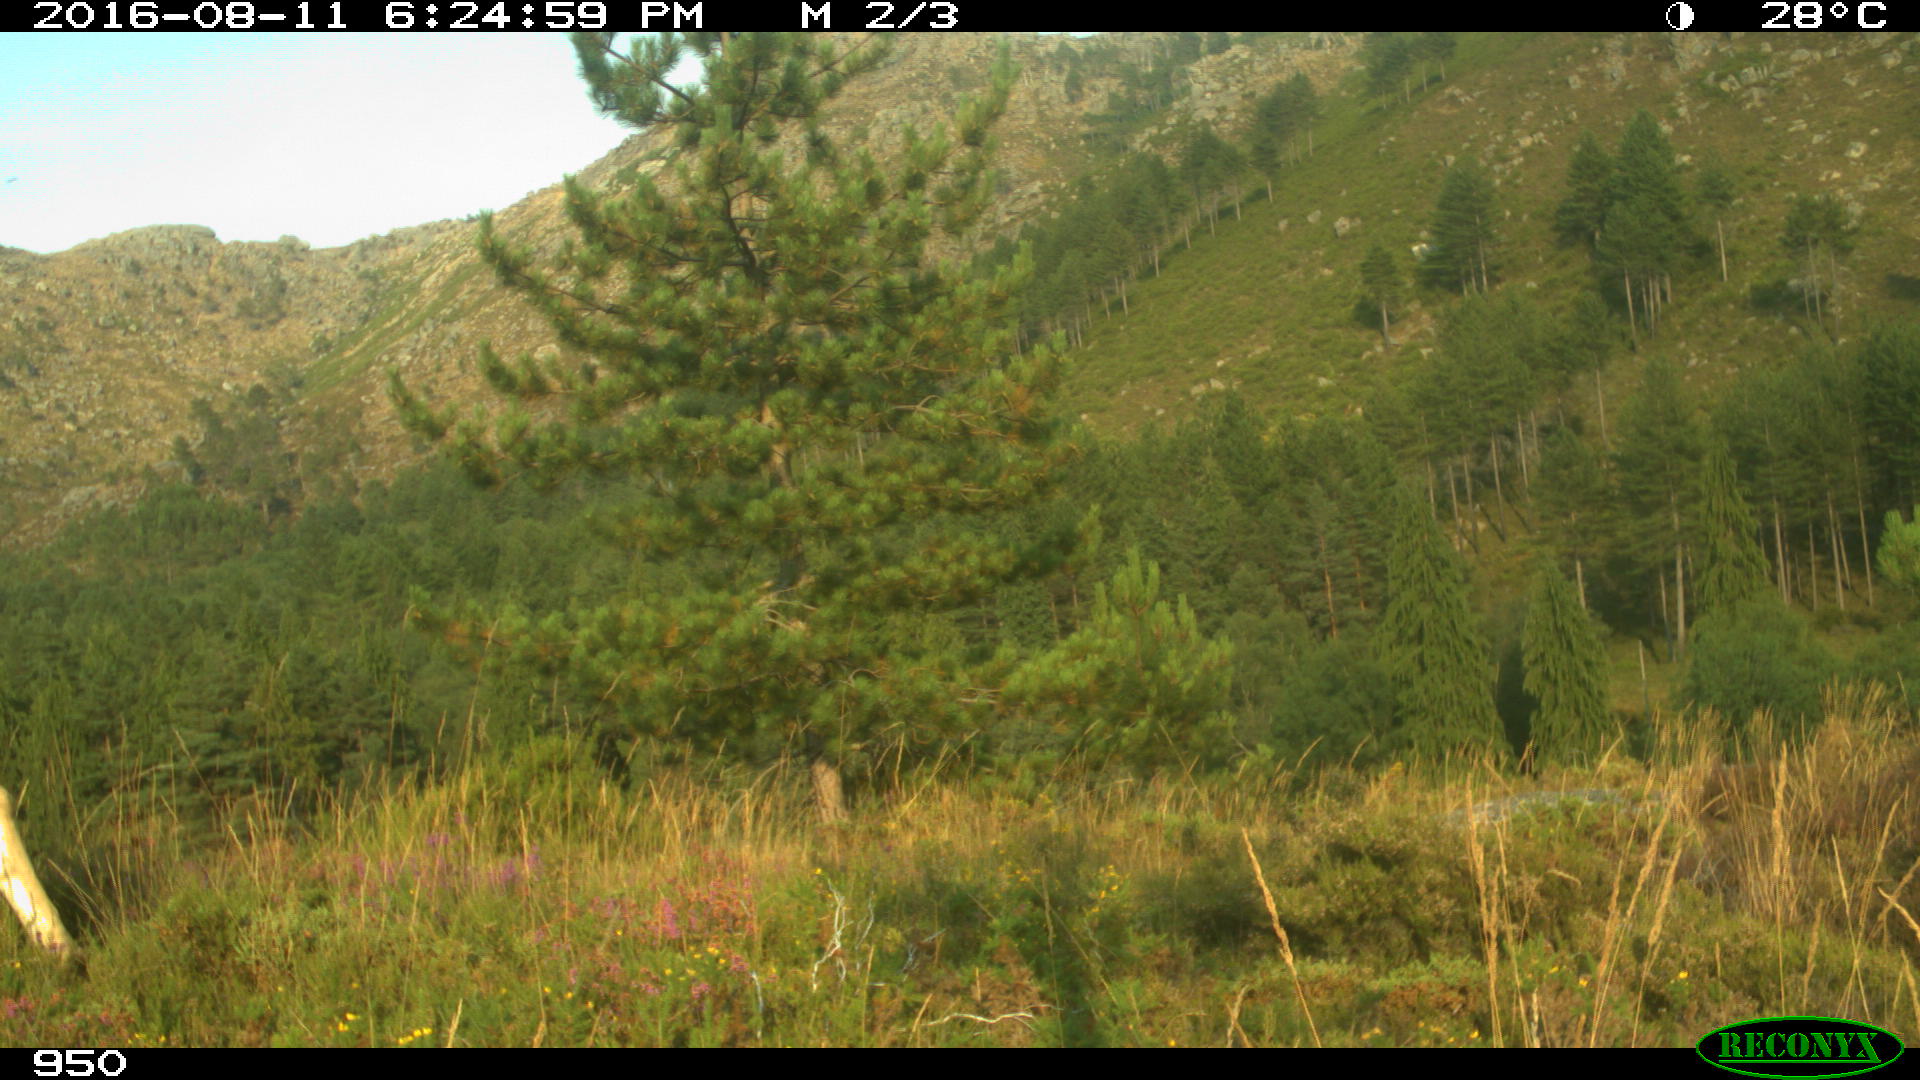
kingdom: Animalia
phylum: Chordata
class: Mammalia
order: Artiodactyla
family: Bovidae
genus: Bos
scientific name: Bos taurus
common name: Domesticated cattle
